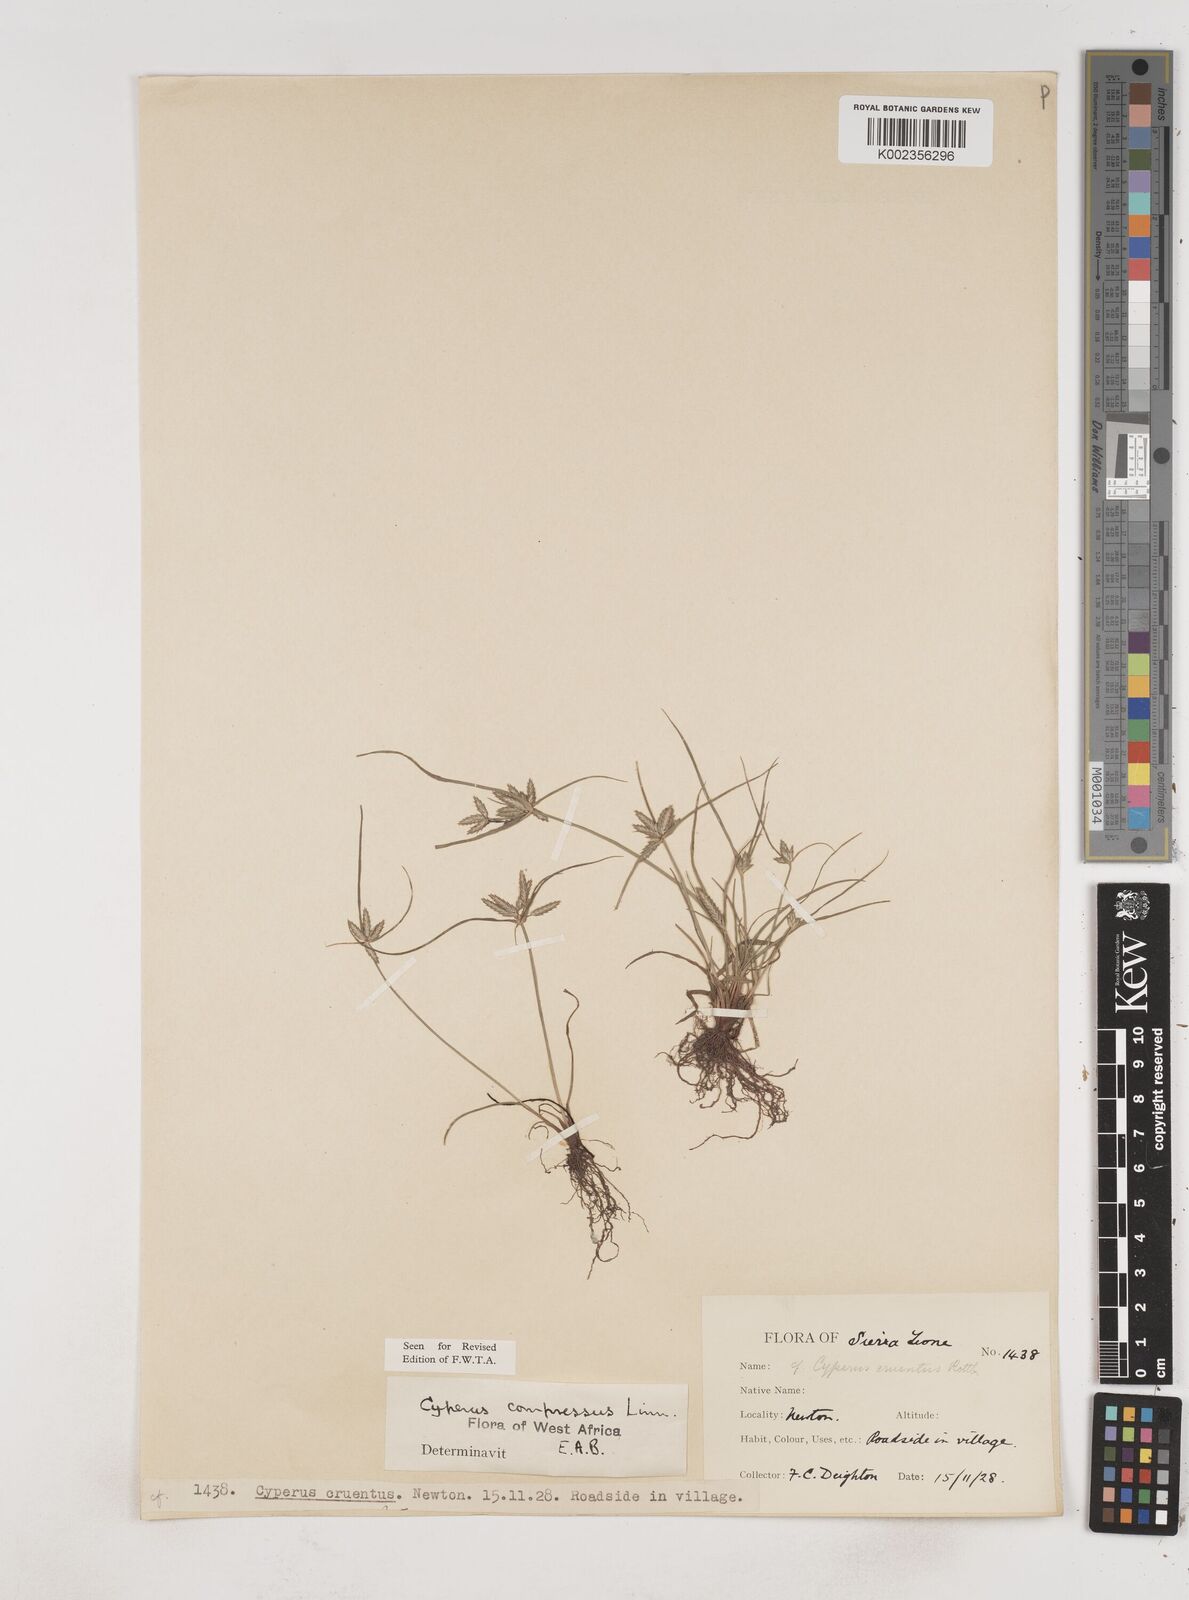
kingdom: Plantae
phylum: Tracheophyta
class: Liliopsida
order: Poales
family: Cyperaceae
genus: Cyperus
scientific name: Cyperus compressus
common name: Poorland flatsedge
